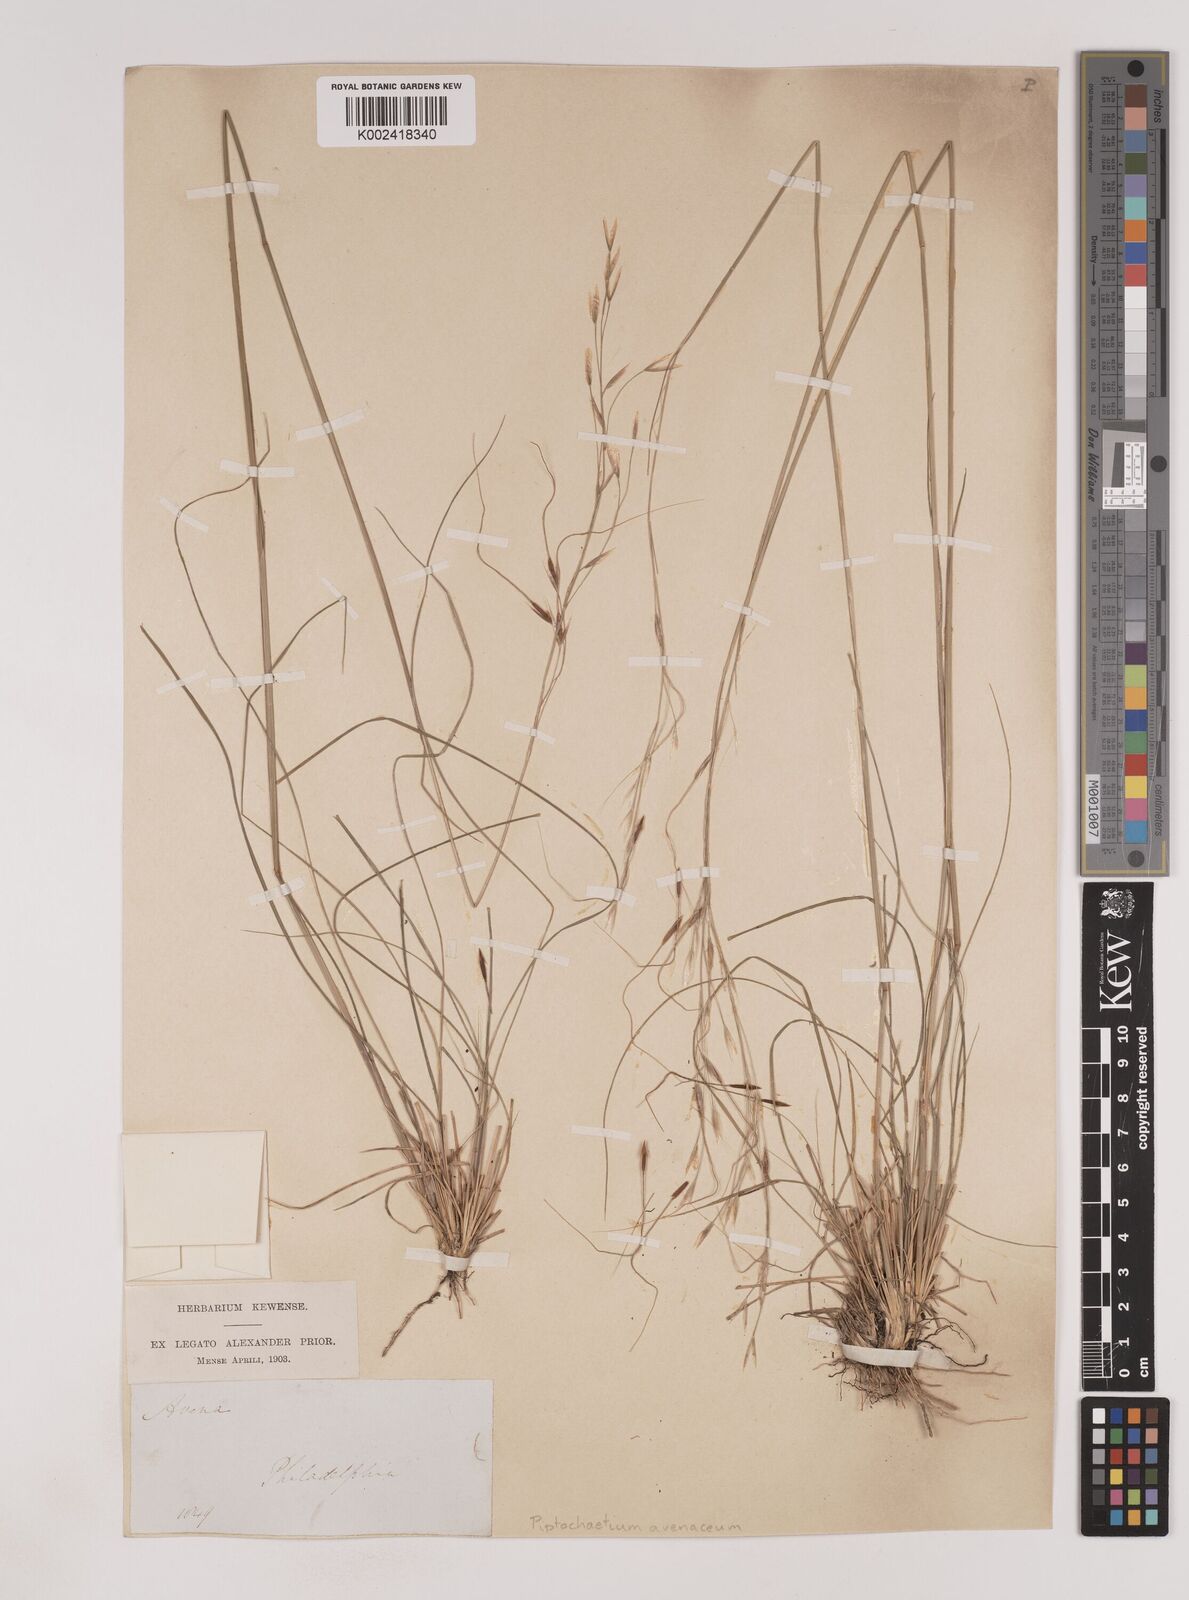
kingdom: Plantae
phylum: Tracheophyta
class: Liliopsida
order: Poales
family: Poaceae
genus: Piptochaetium
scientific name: Piptochaetium avenaceum
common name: Black bunchgrass
